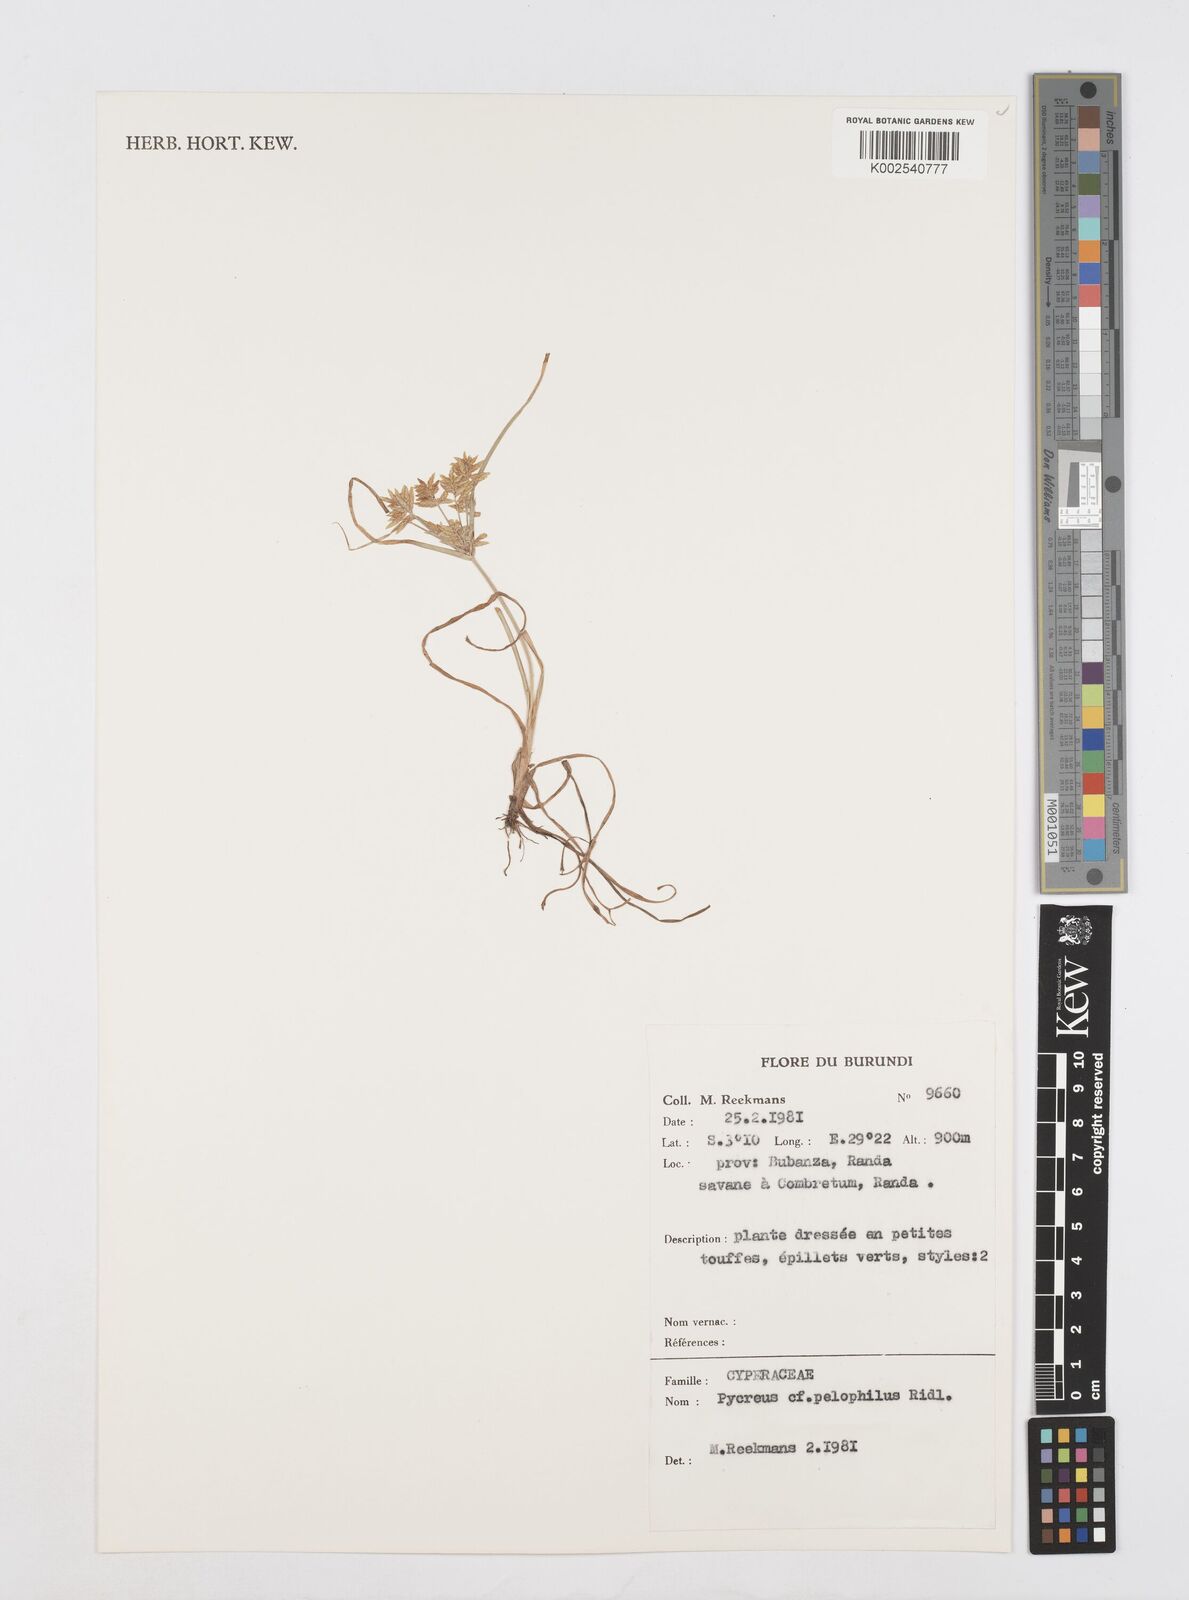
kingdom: Plantae
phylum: Tracheophyta
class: Liliopsida
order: Poales
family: Cyperaceae
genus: Cyperus
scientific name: Cyperus pelophilus
